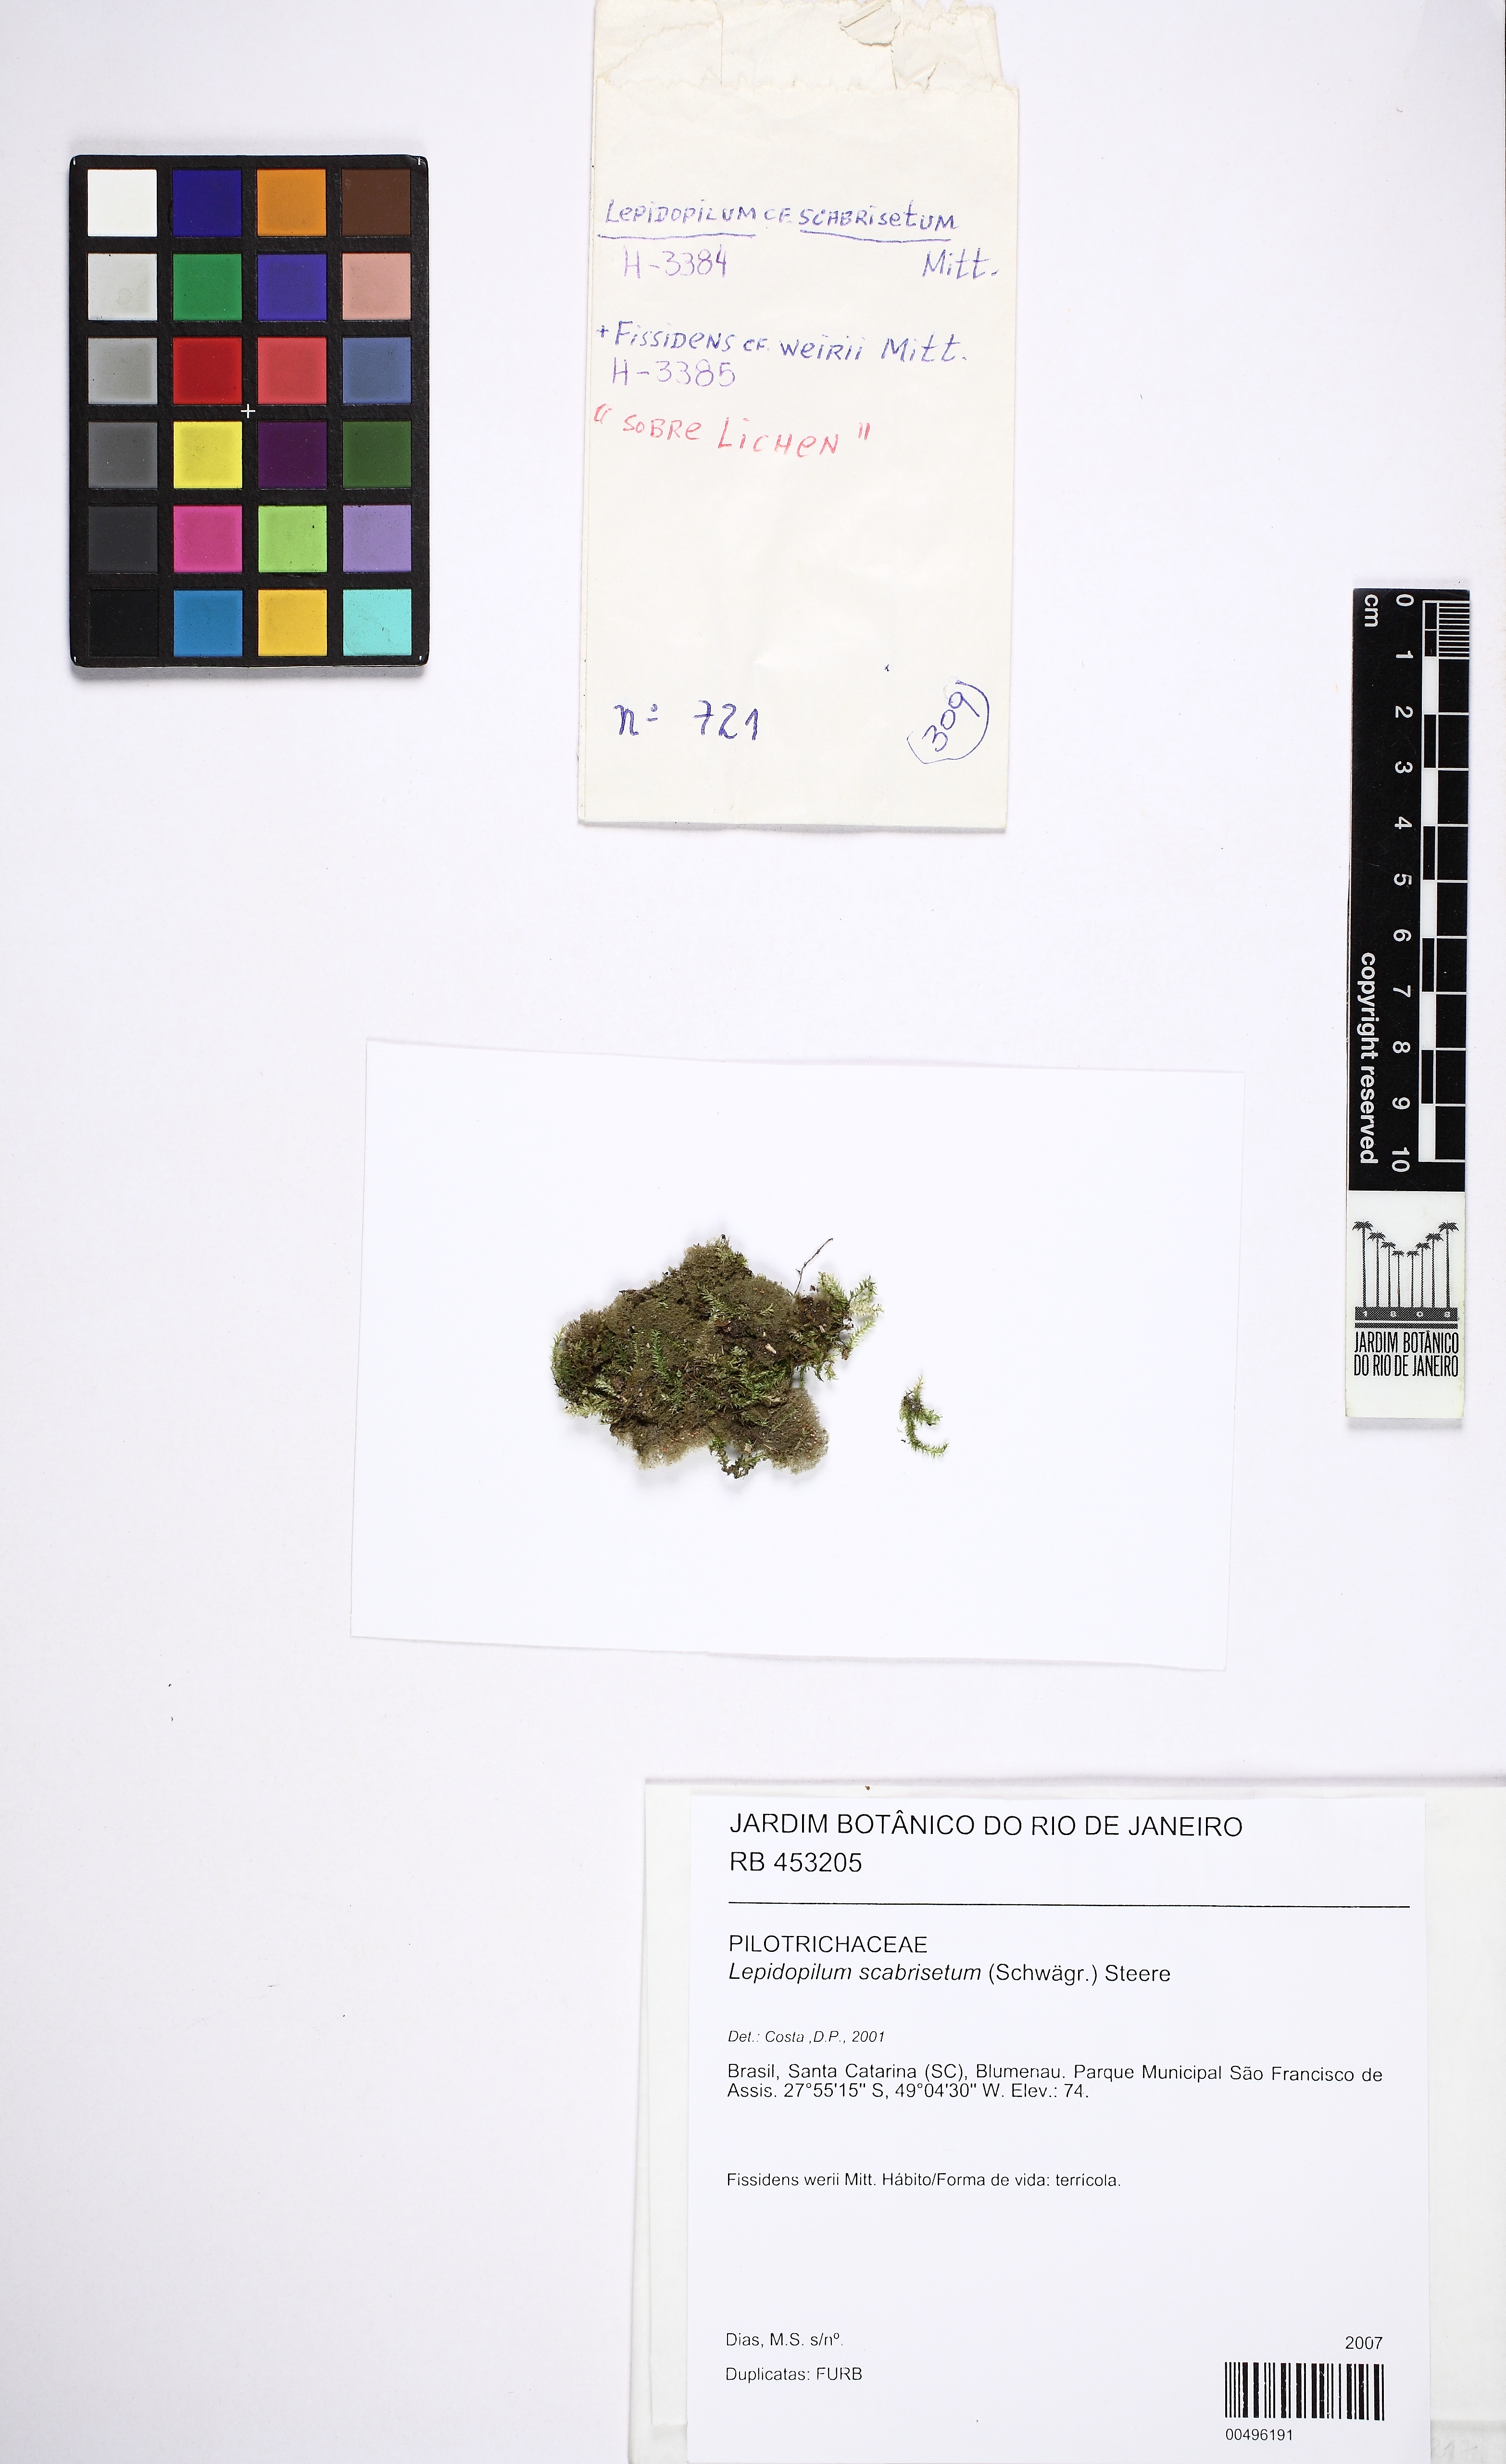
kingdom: Plantae
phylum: Bryophyta
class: Bryopsida
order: Hookeriales
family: Pilotrichaceae
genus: Lepidopilum
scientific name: Lepidopilum scabrisetum
